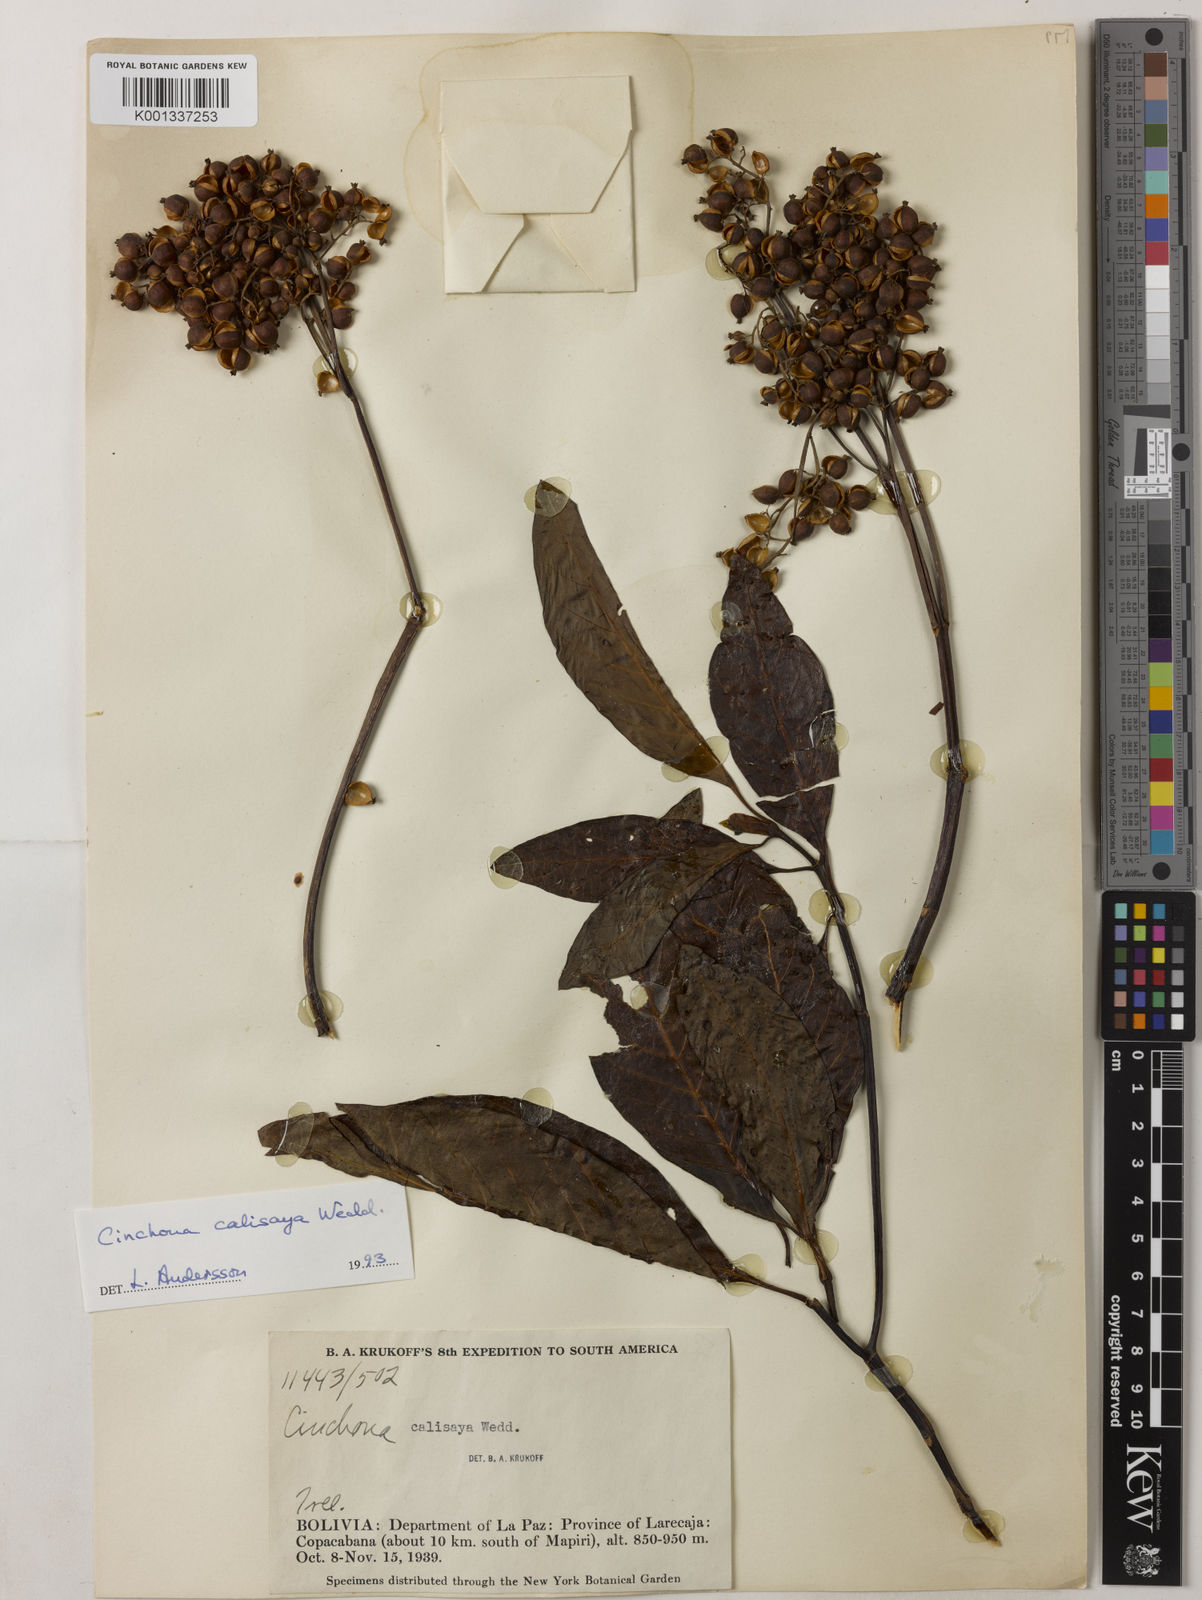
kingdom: Plantae
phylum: Tracheophyta
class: Magnoliopsida
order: Gentianales
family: Rubiaceae
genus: Cinchona
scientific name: Cinchona calisaya
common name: Ledgerbark
